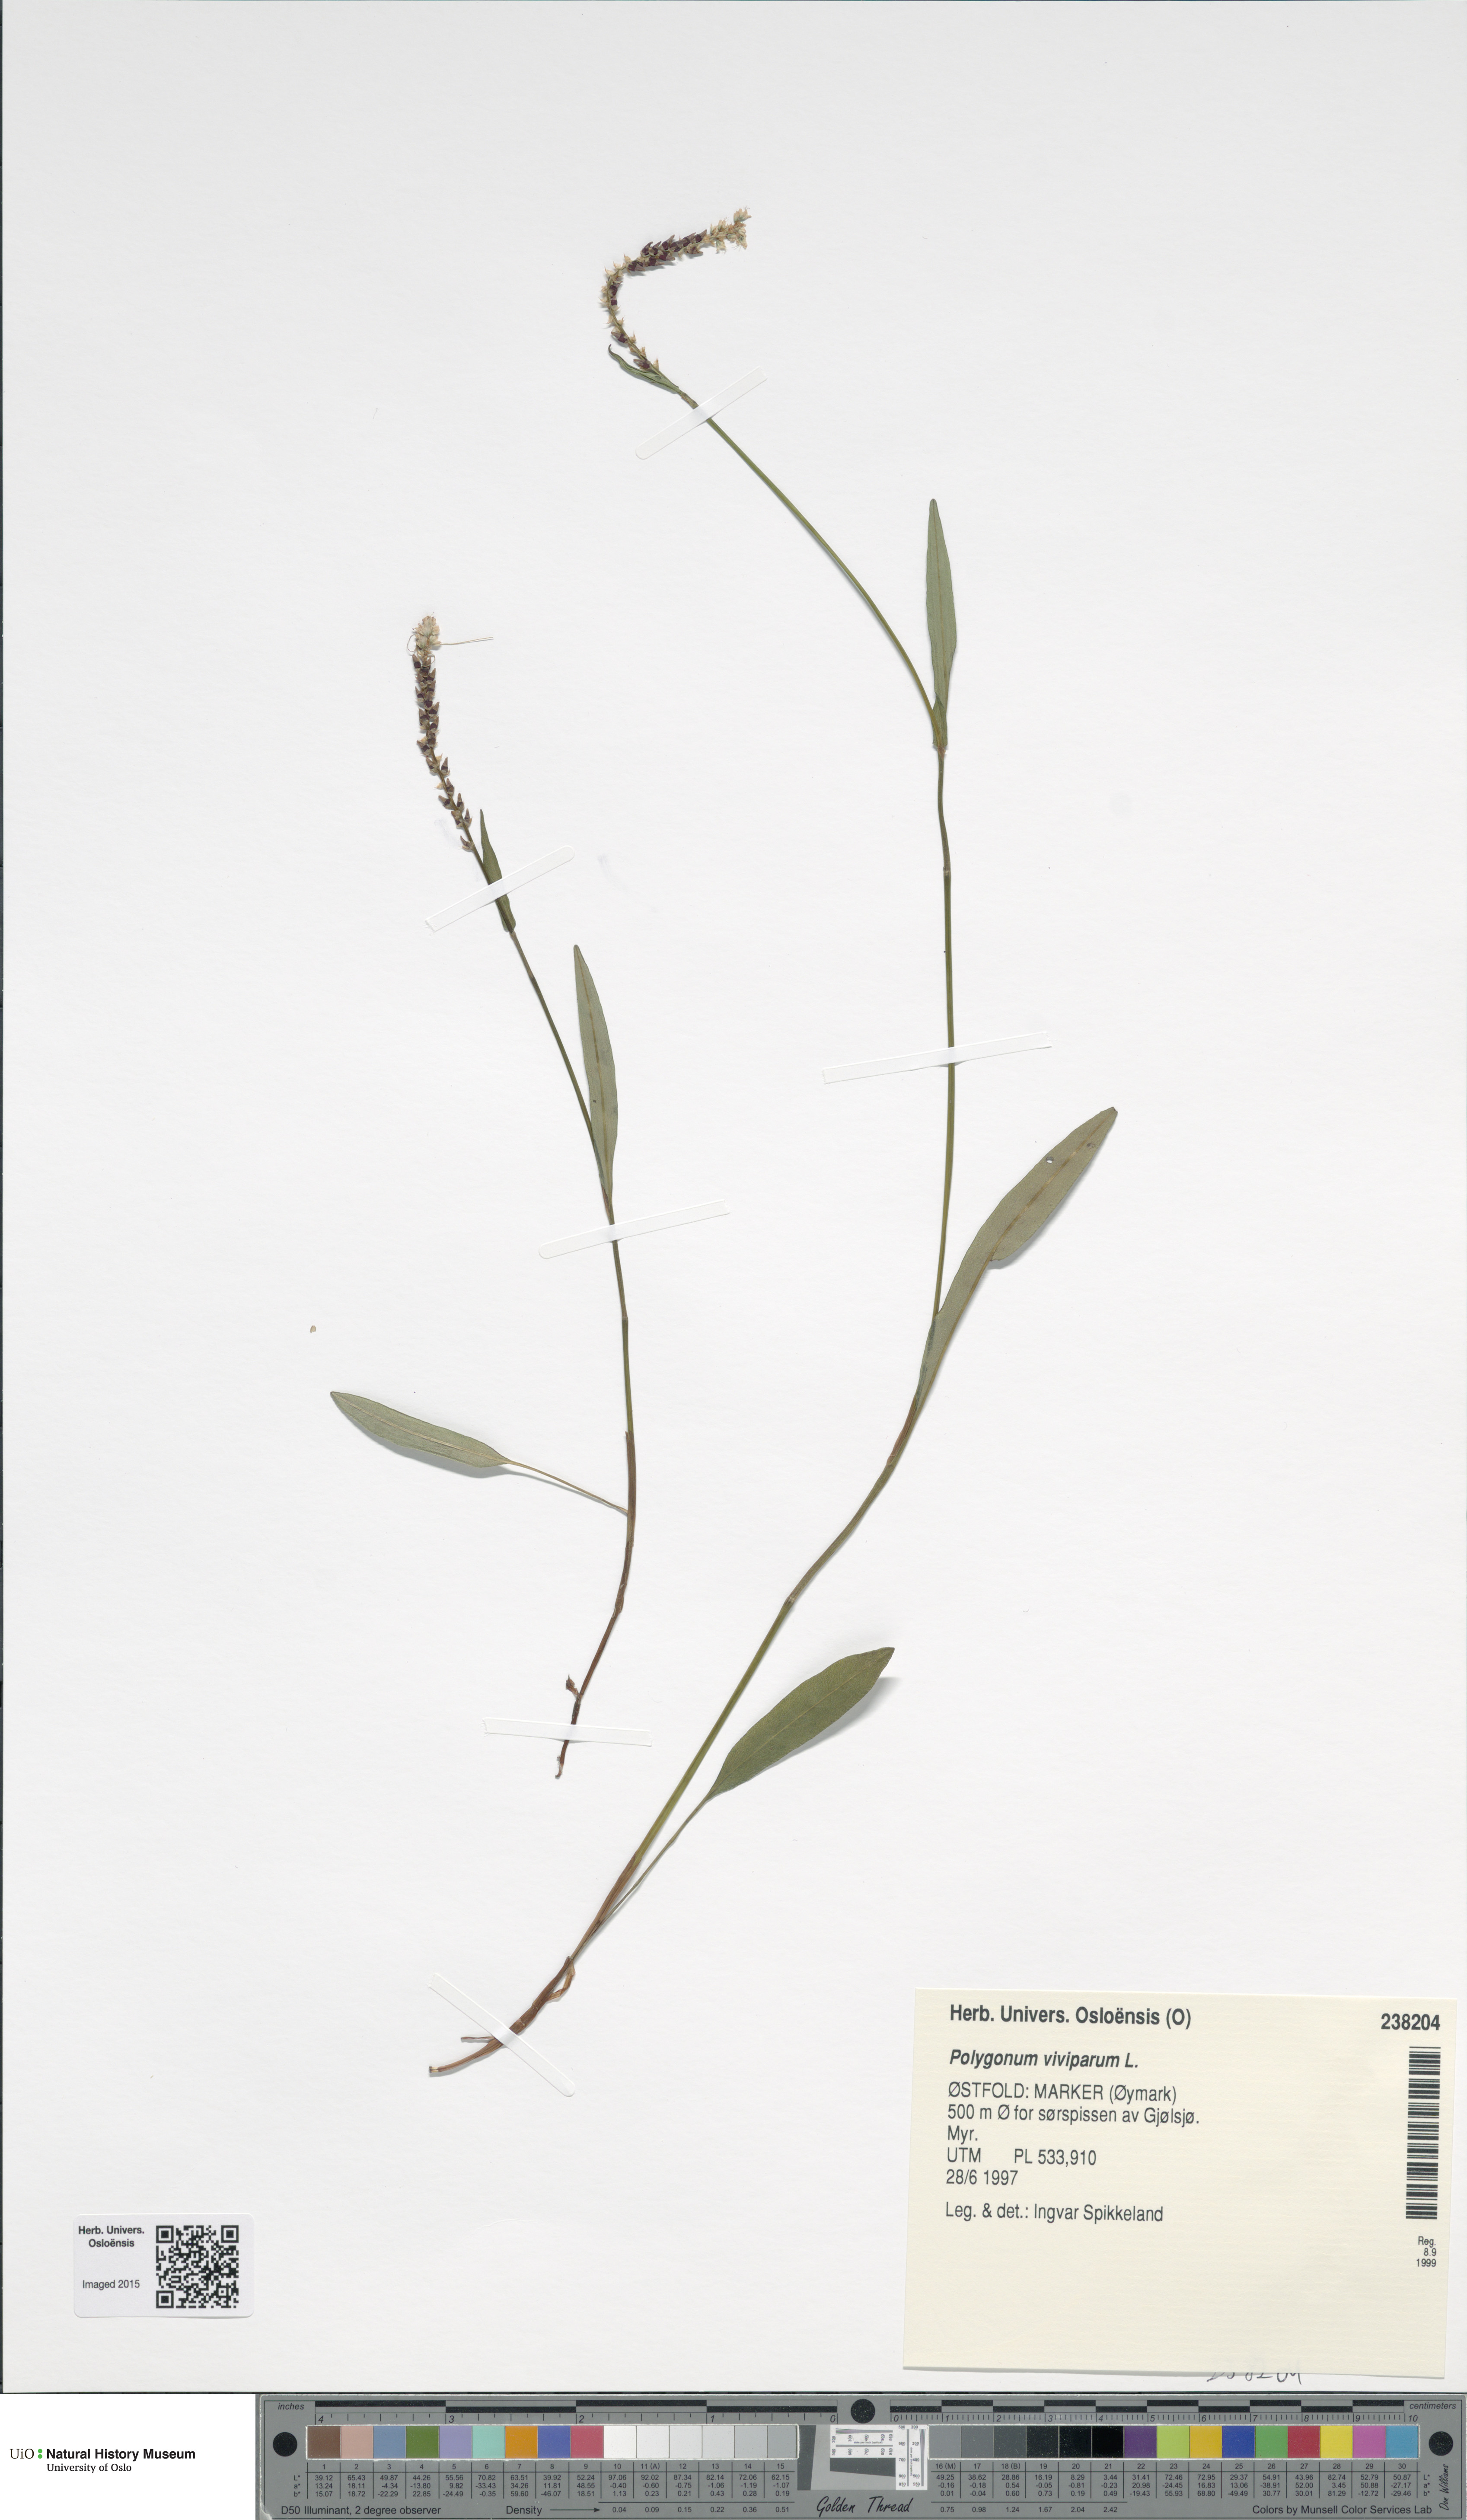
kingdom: Plantae
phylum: Tracheophyta
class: Magnoliopsida
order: Caryophyllales
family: Polygonaceae
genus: Bistorta
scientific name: Bistorta vivipara
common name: Alpine bistort
